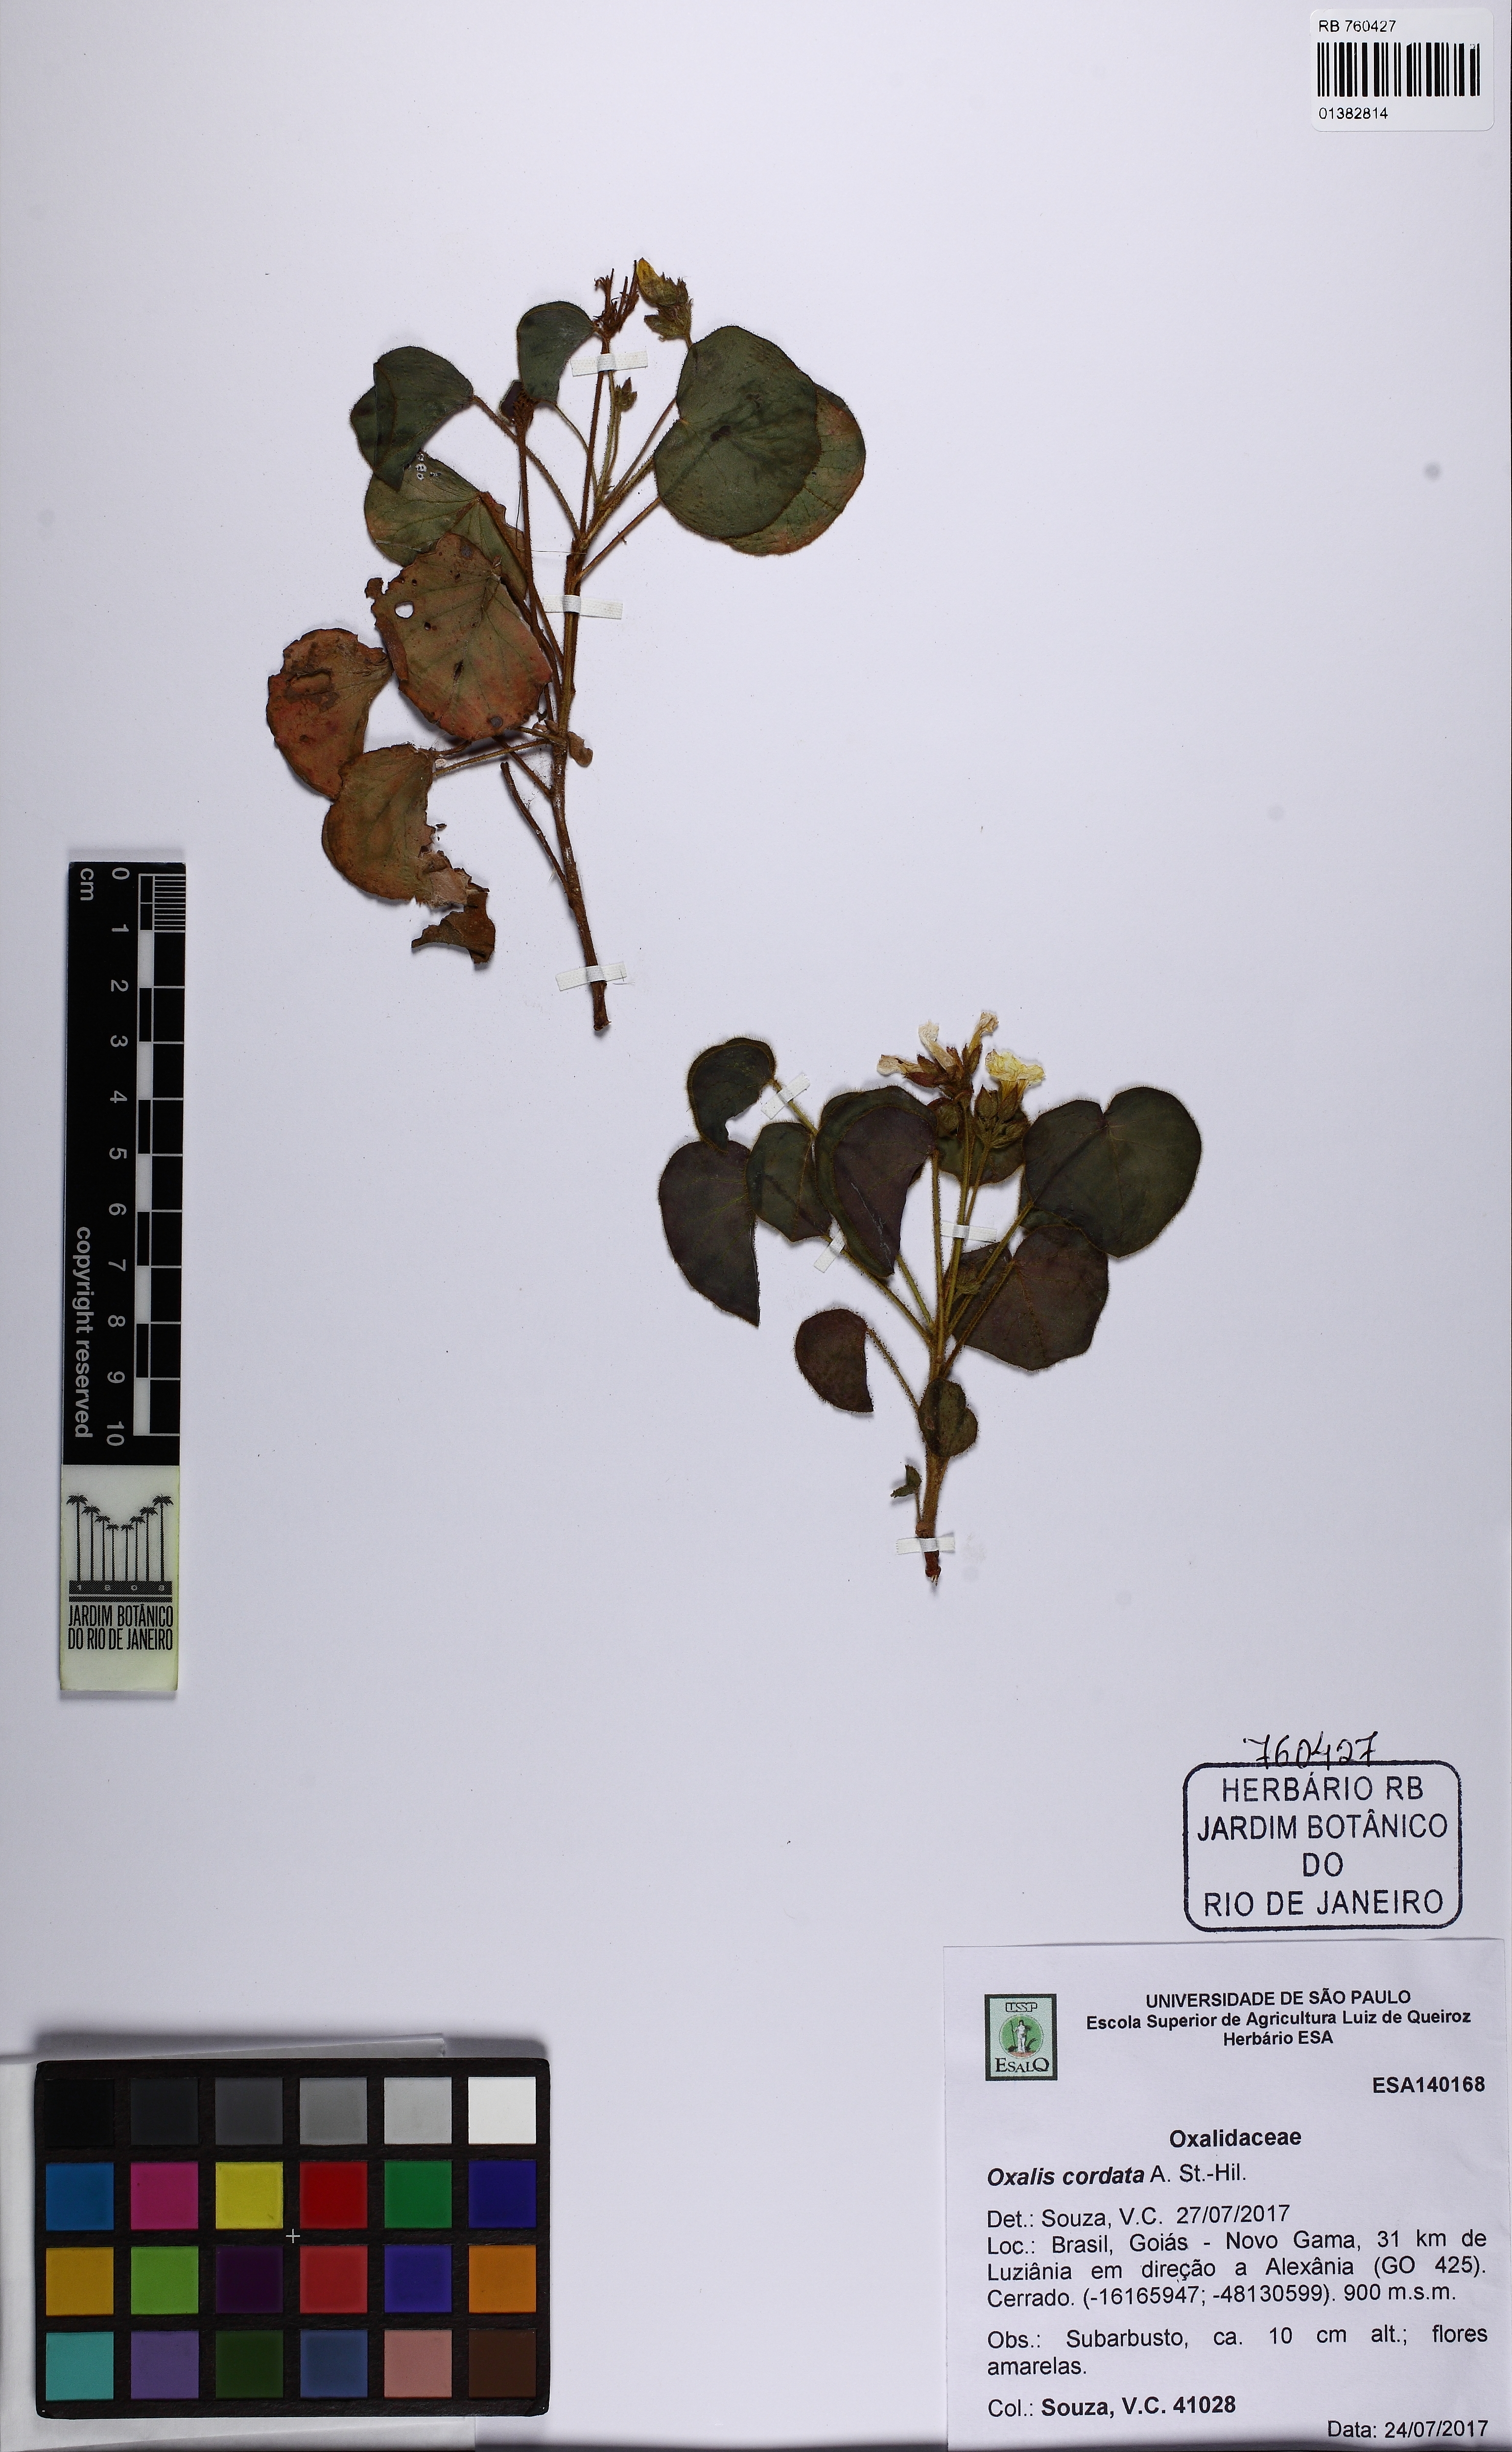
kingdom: Plantae
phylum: Tracheophyta
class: Magnoliopsida
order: Oxalidales
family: Oxalidaceae
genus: Oxalis
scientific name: Oxalis cordata
